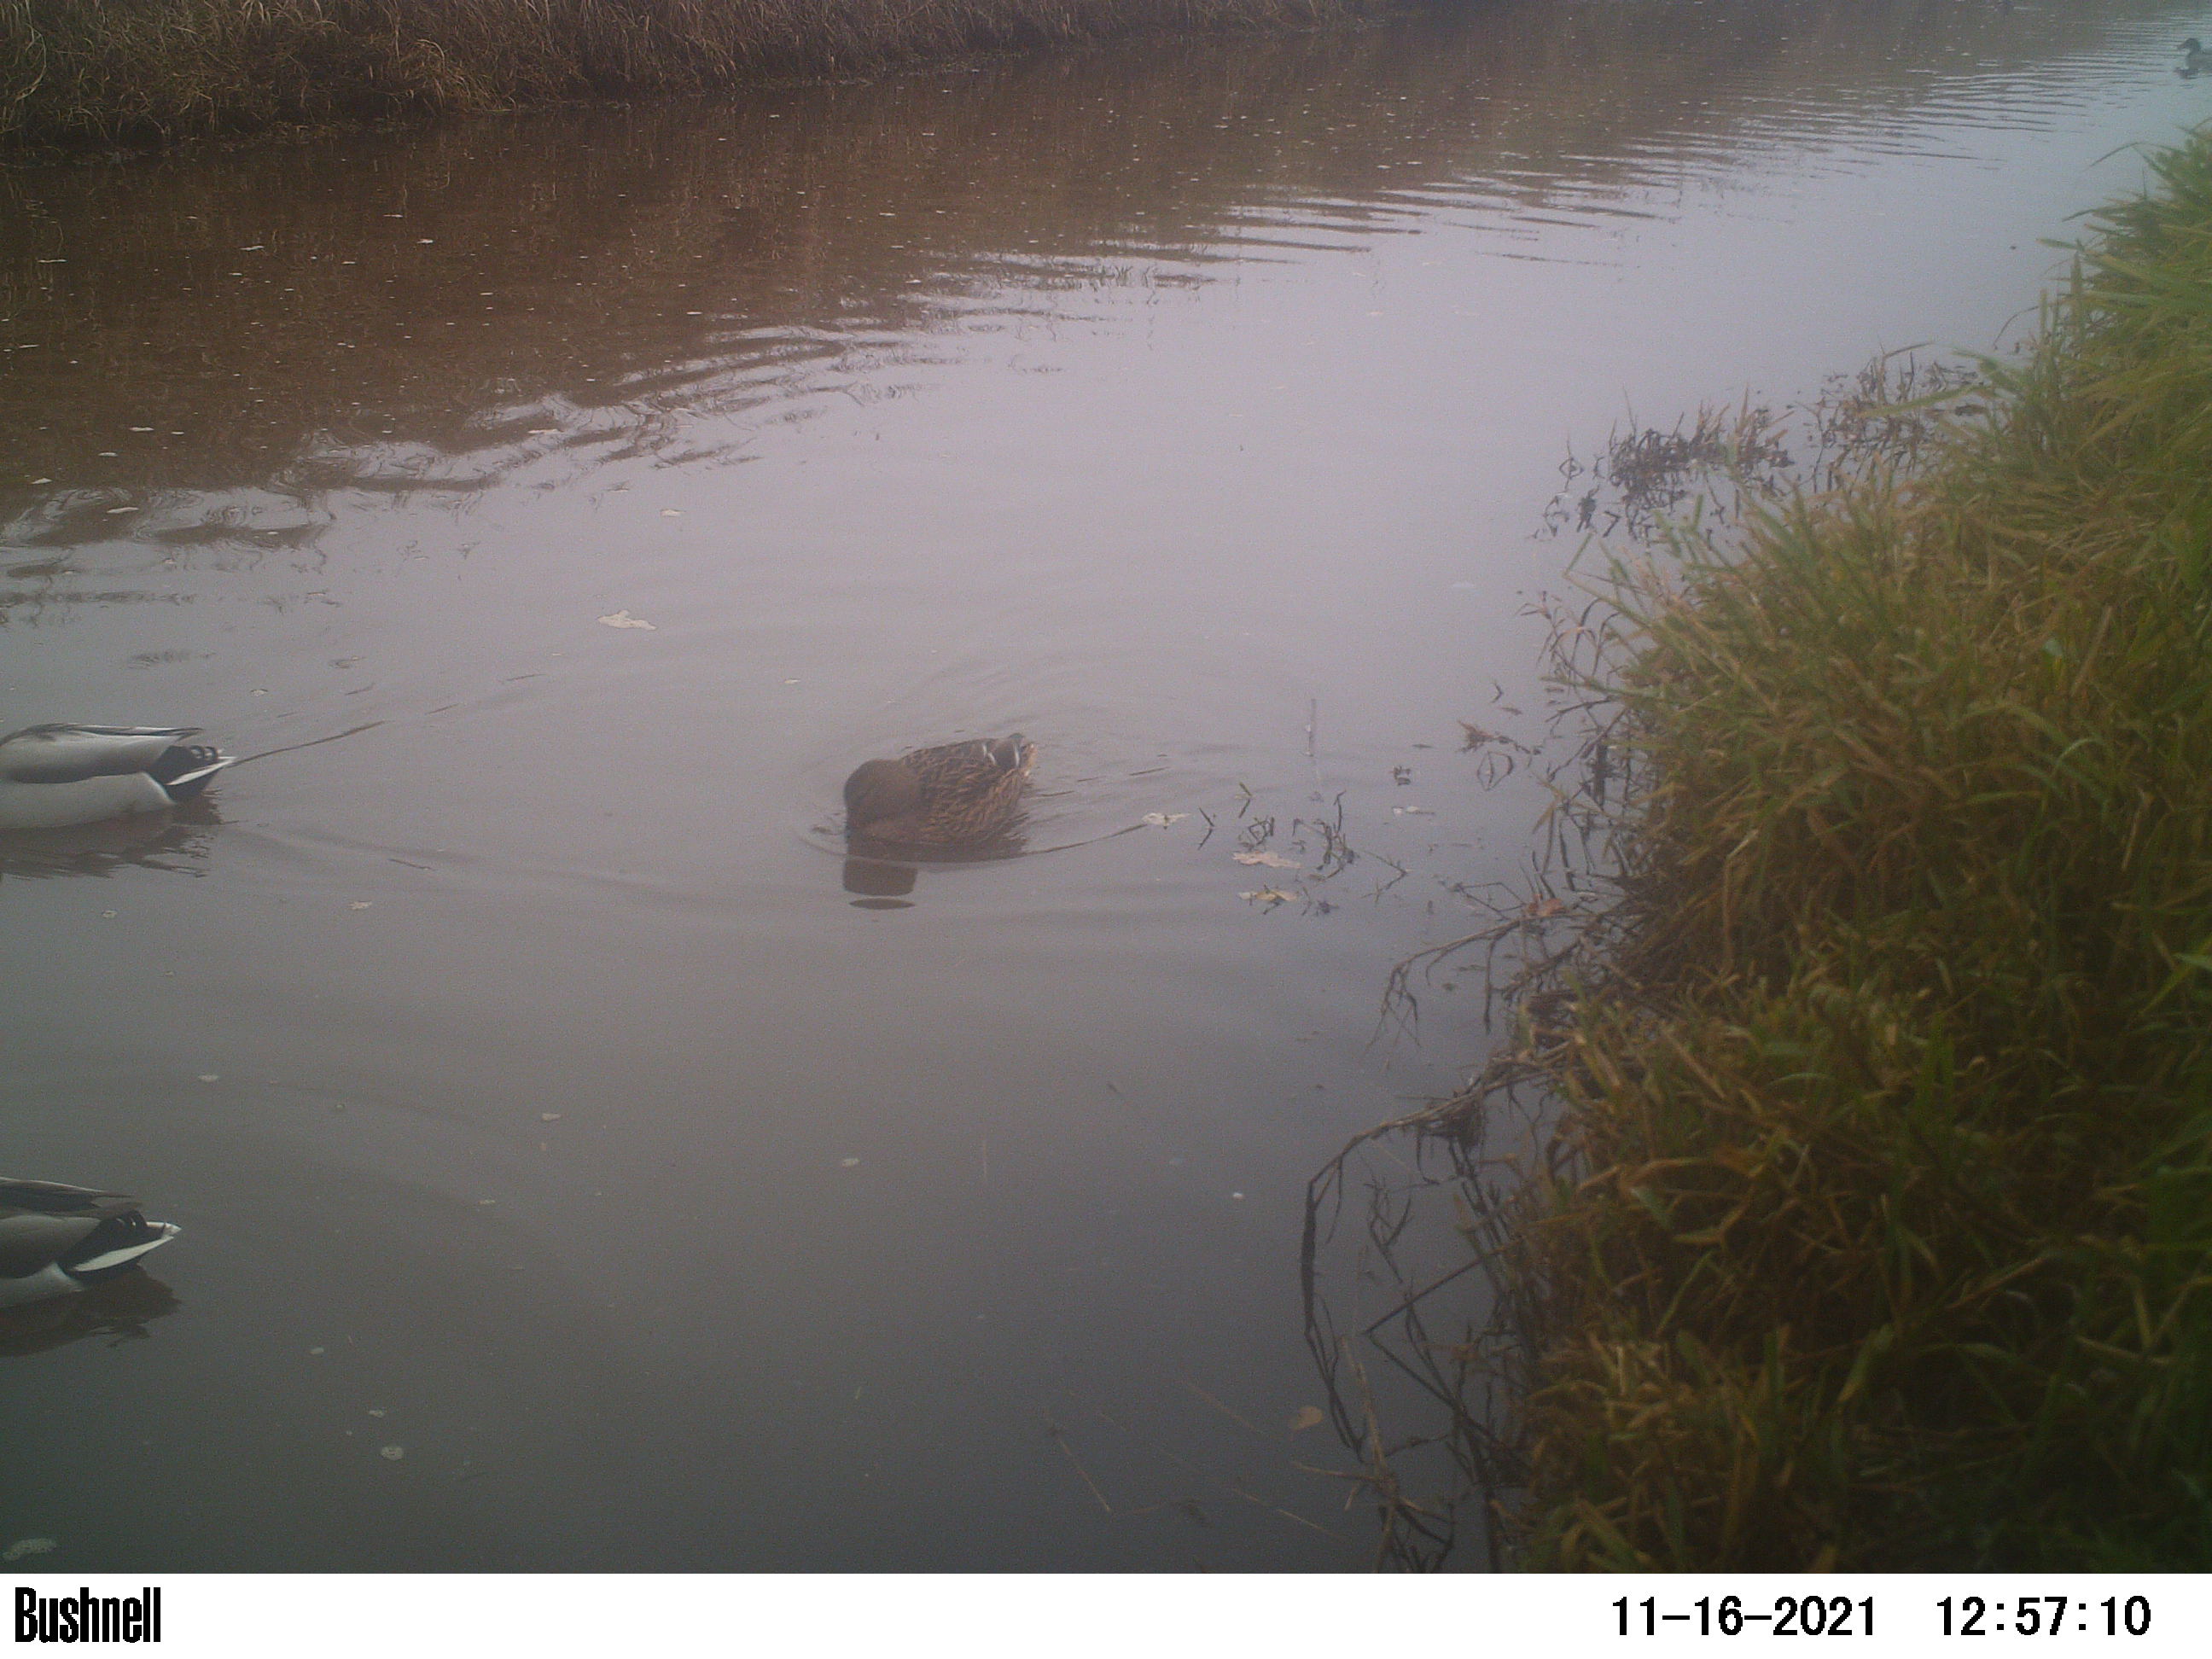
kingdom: Animalia
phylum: Chordata
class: Aves
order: Anseriformes
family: Anatidae
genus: Anas
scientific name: Anas
